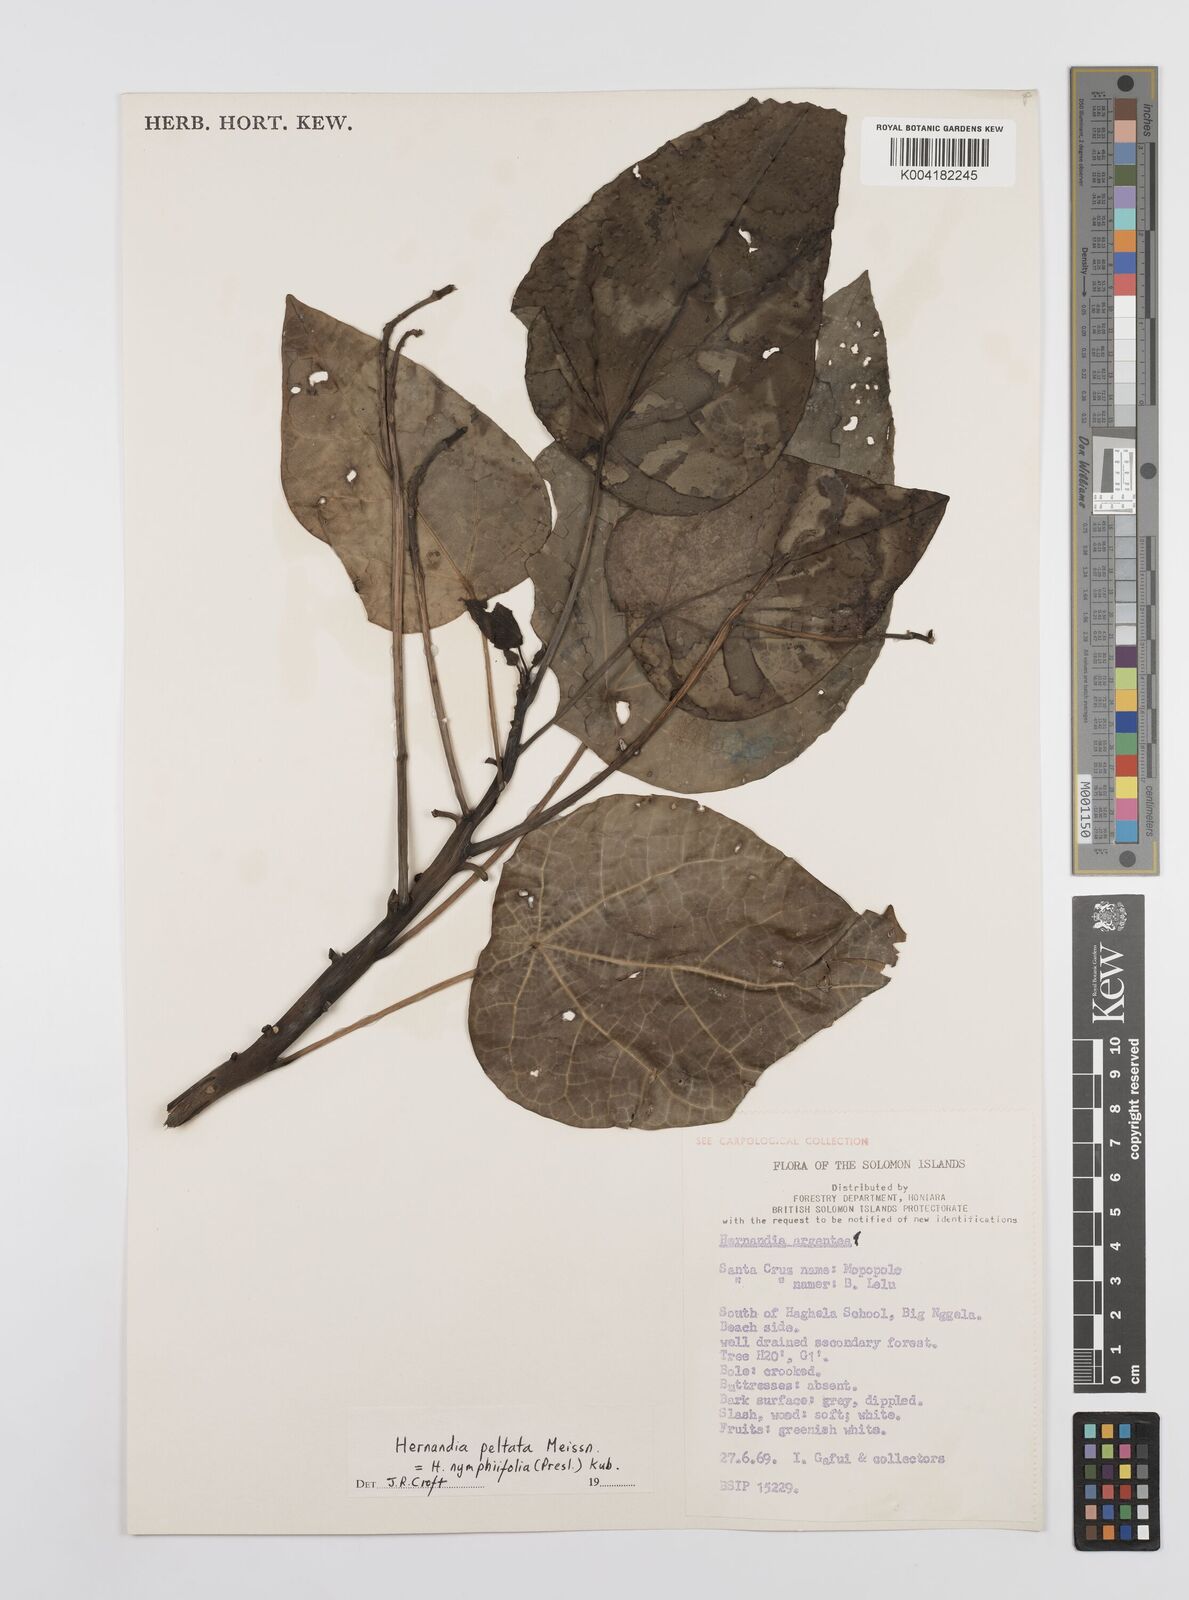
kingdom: Plantae
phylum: Tracheophyta
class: Magnoliopsida
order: Laurales
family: Hernandiaceae
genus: Hernandia
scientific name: Hernandia nymphaeifolia
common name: Sea hearse
